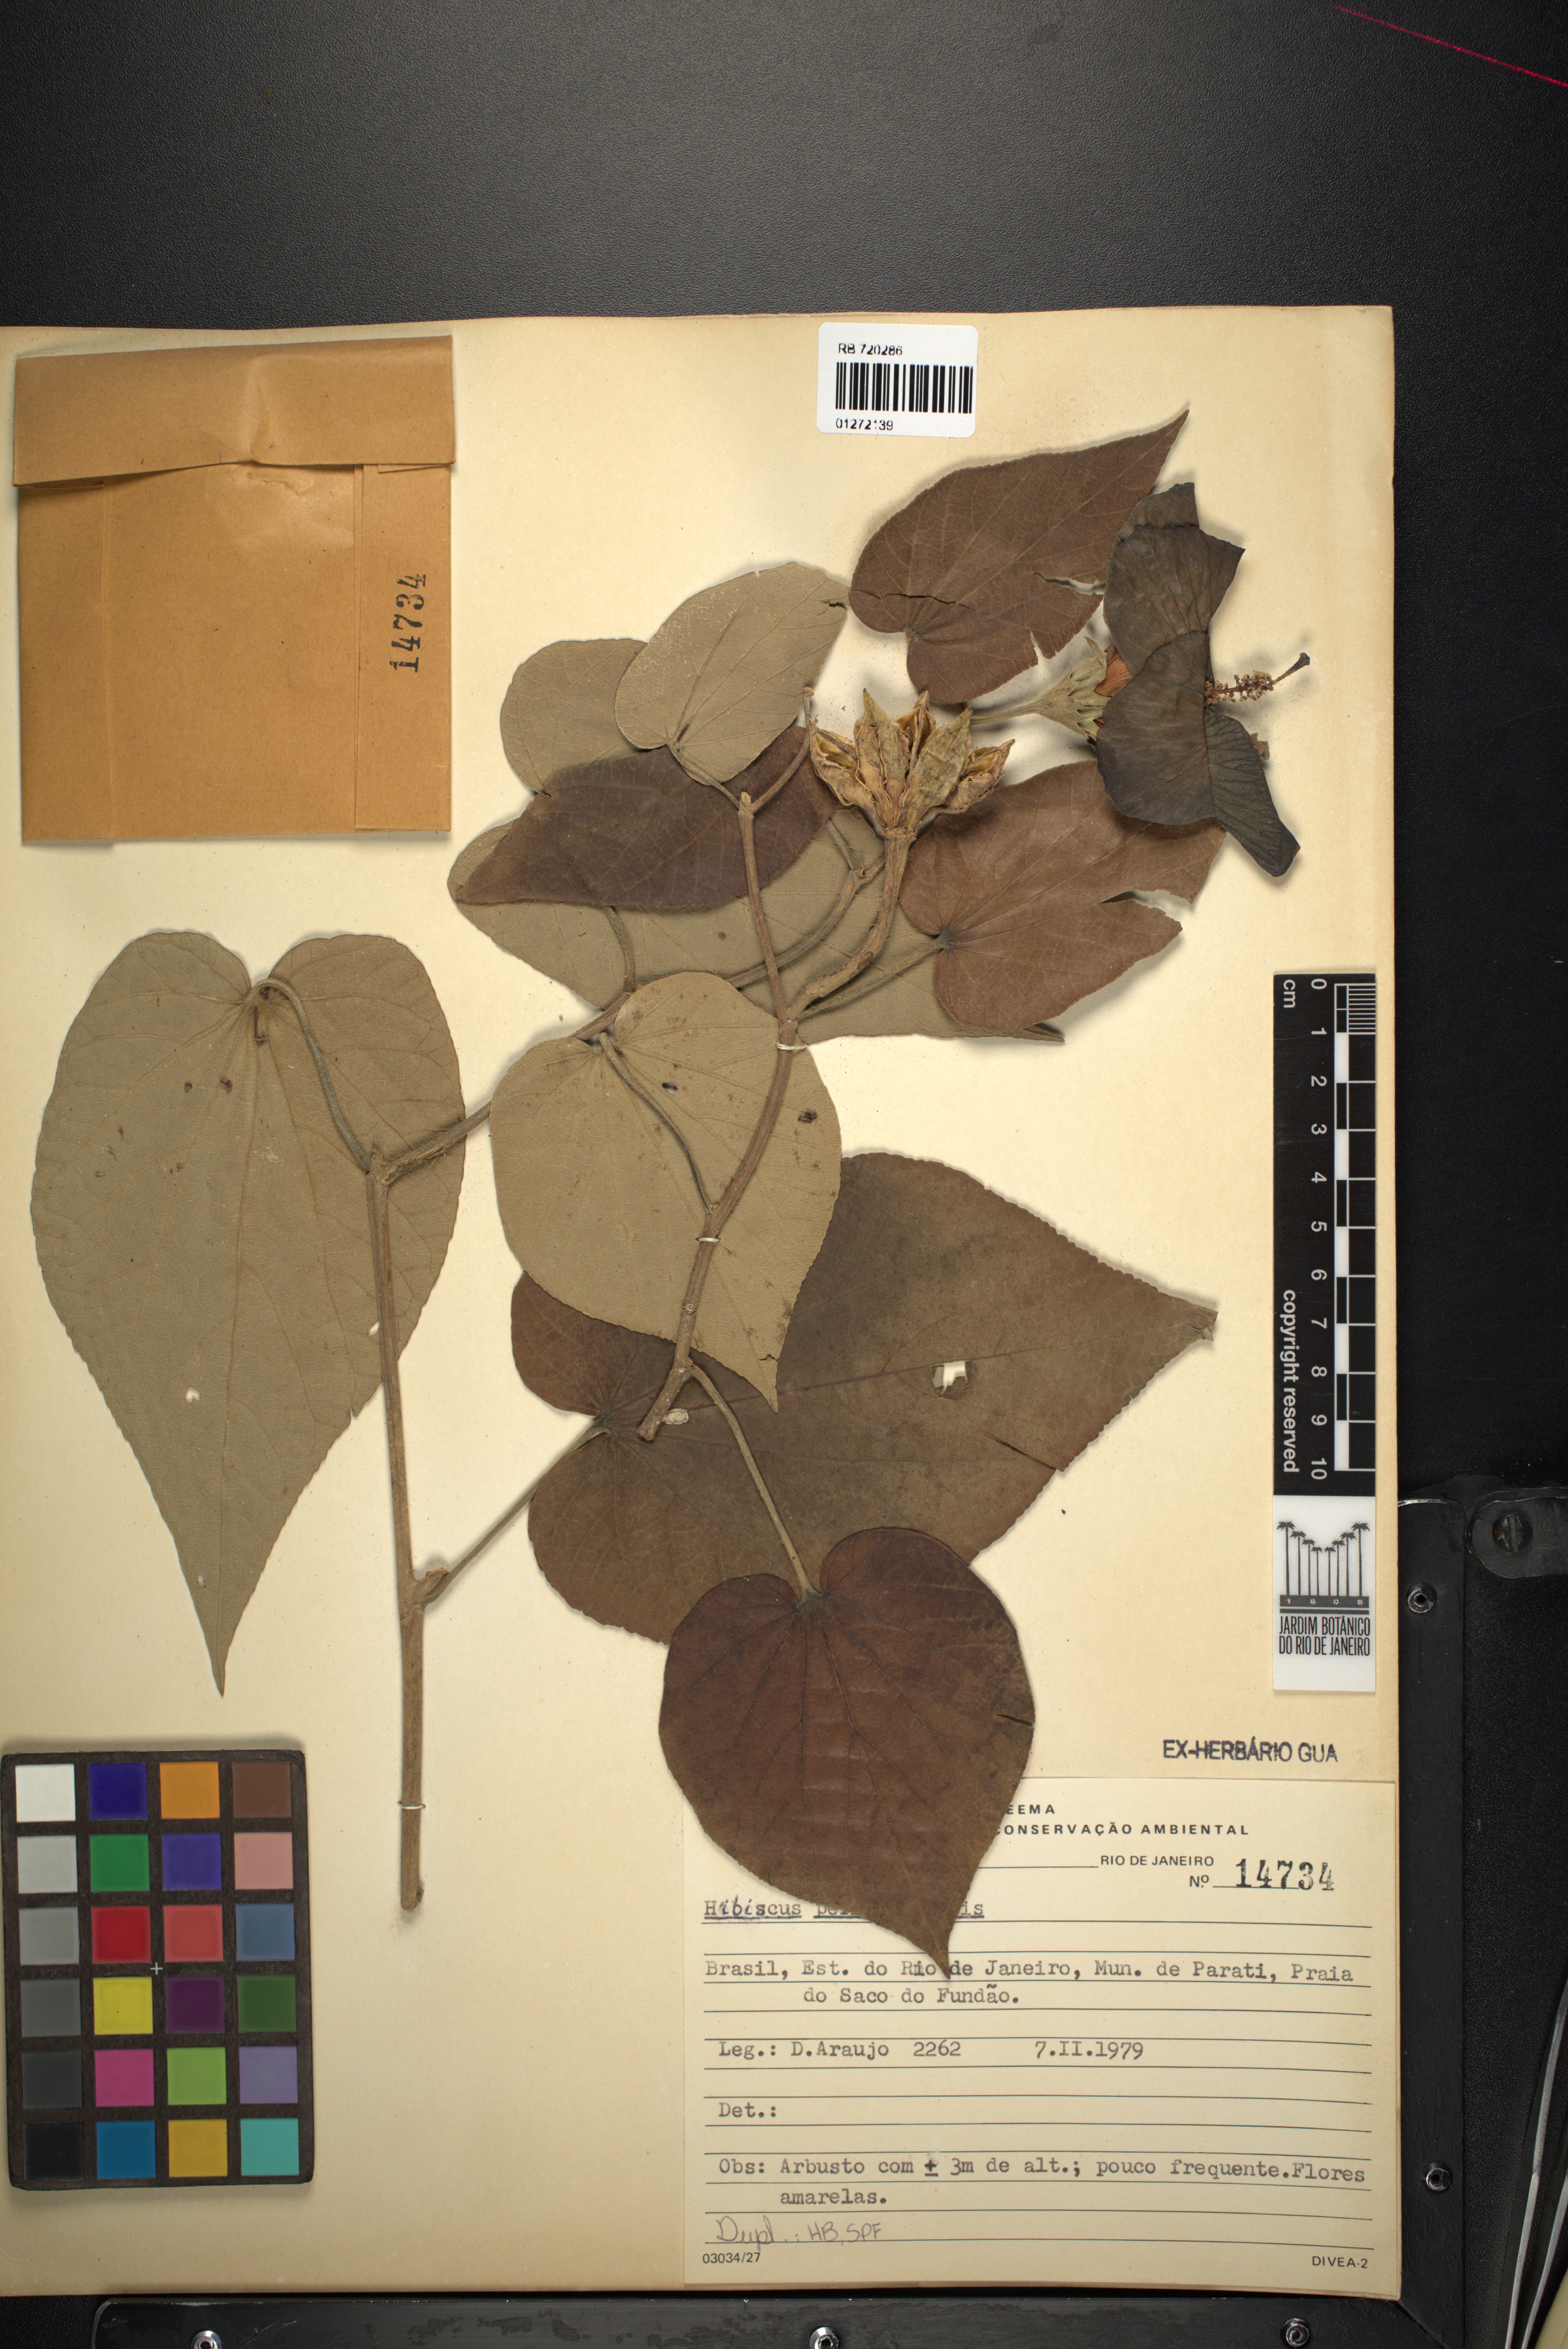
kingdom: Plantae
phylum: Tracheophyta
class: Magnoliopsida
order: Malvales
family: Malvaceae
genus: Talipariti
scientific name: Talipariti pernambucense
